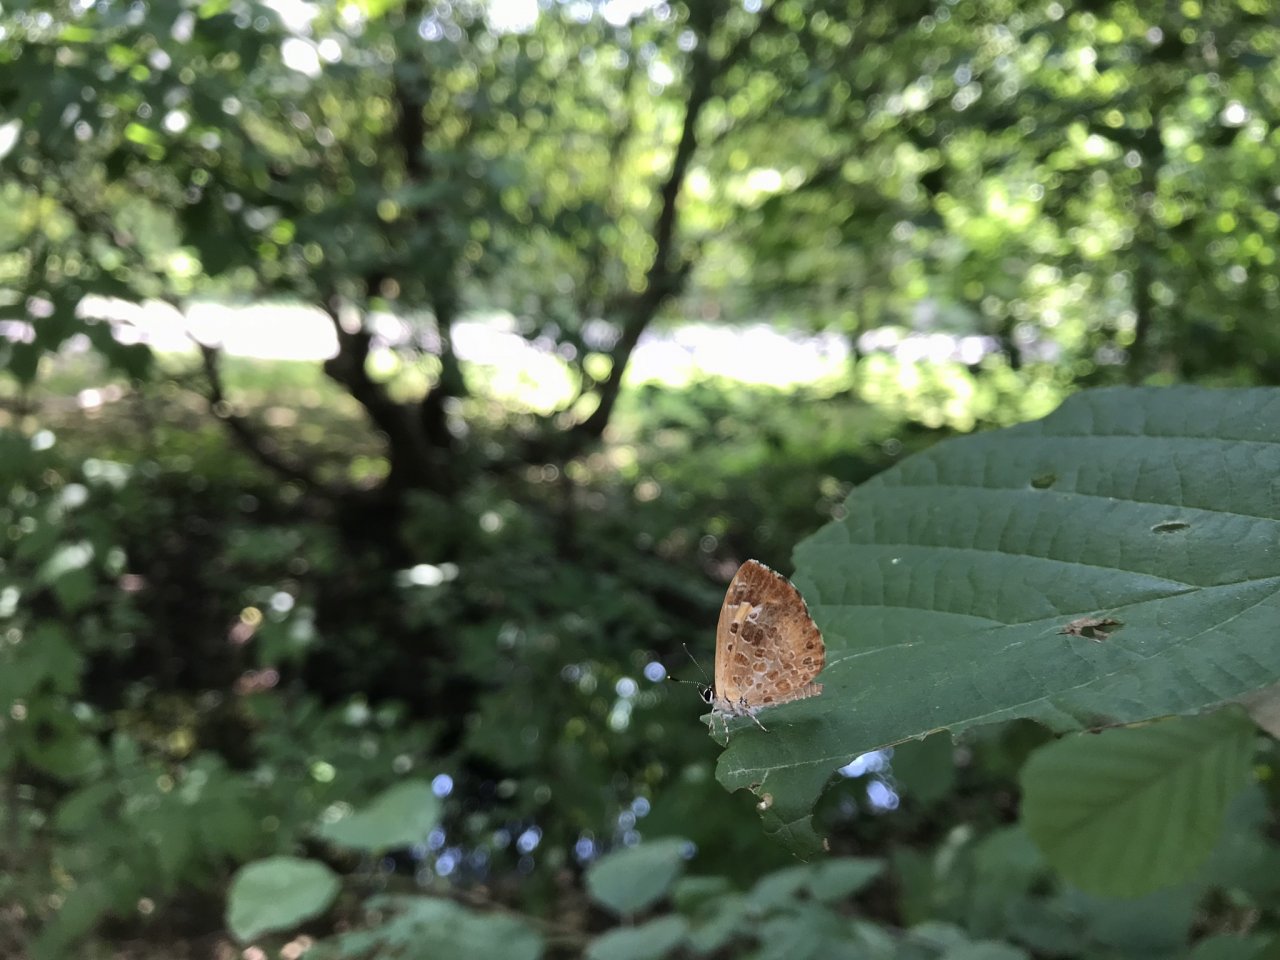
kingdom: Animalia
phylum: Arthropoda
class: Insecta
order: Lepidoptera
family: Lycaenidae
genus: Feniseca
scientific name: Feniseca tarquinius
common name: Harvester
